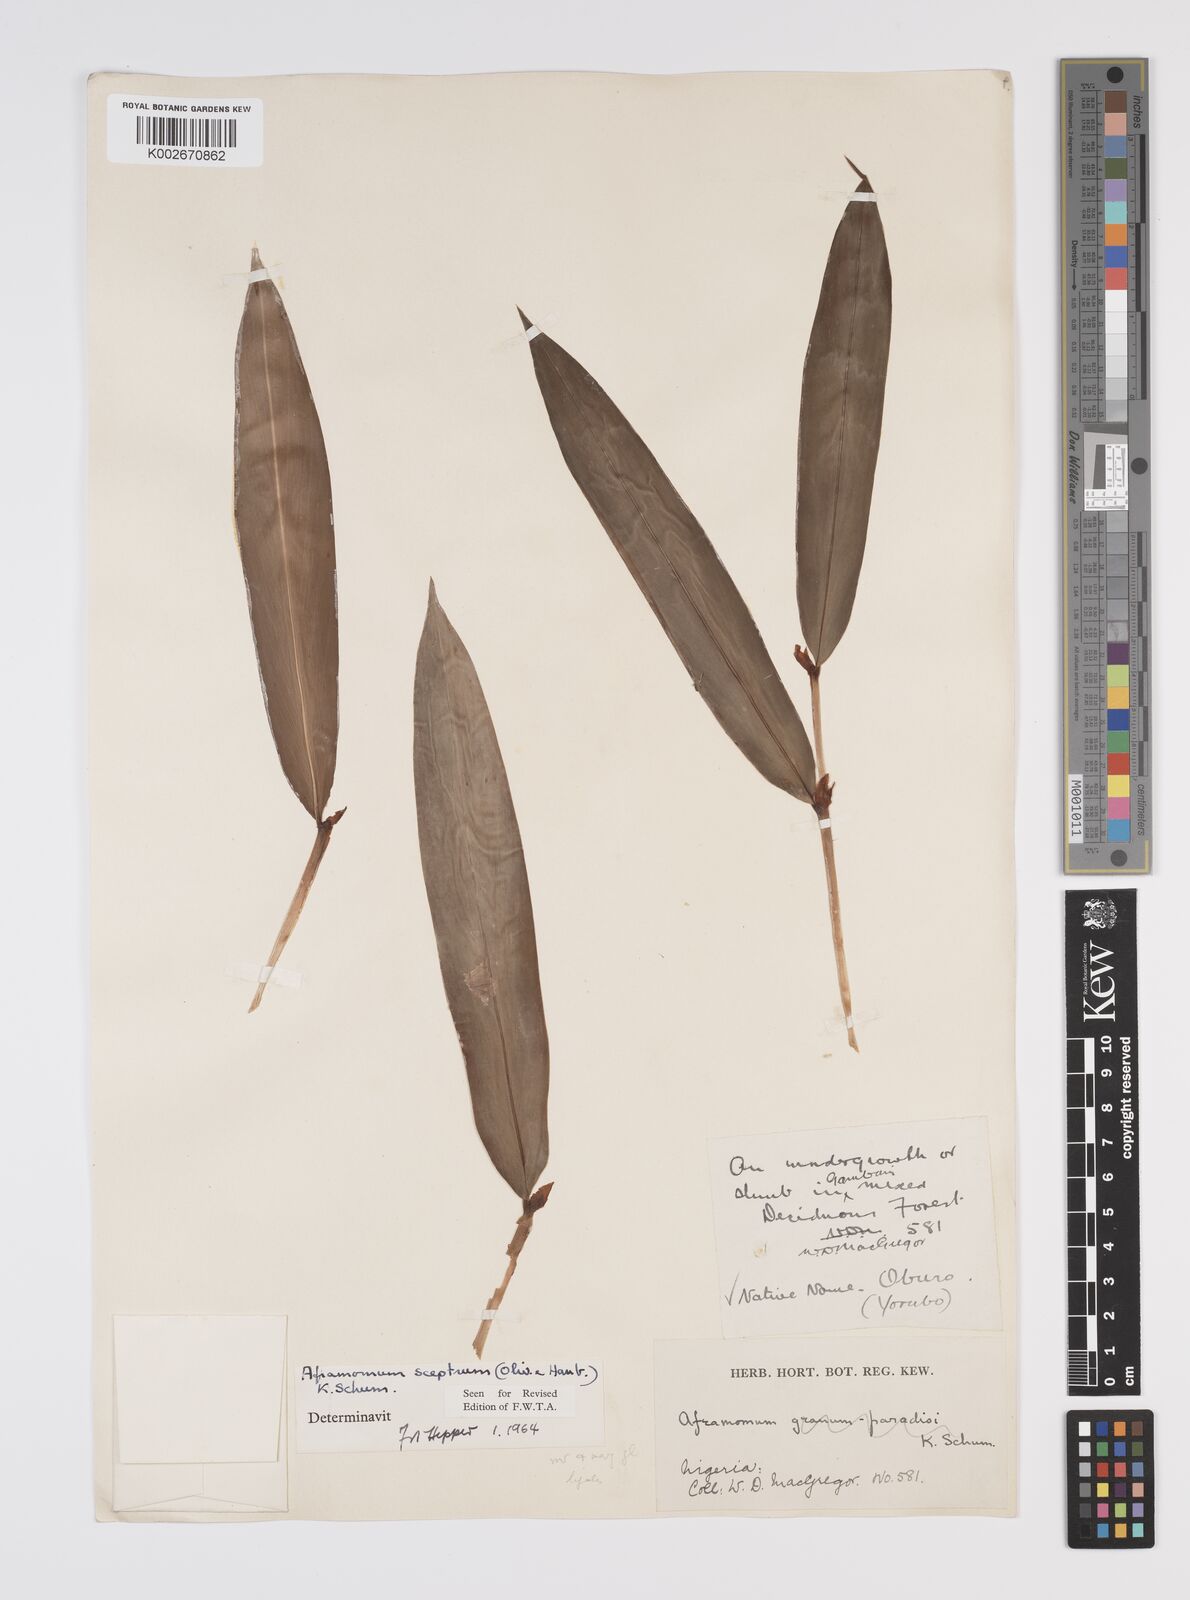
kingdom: Plantae
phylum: Tracheophyta
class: Liliopsida
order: Zingiberales
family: Zingiberaceae
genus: Aframomum
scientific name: Aframomum cereum
